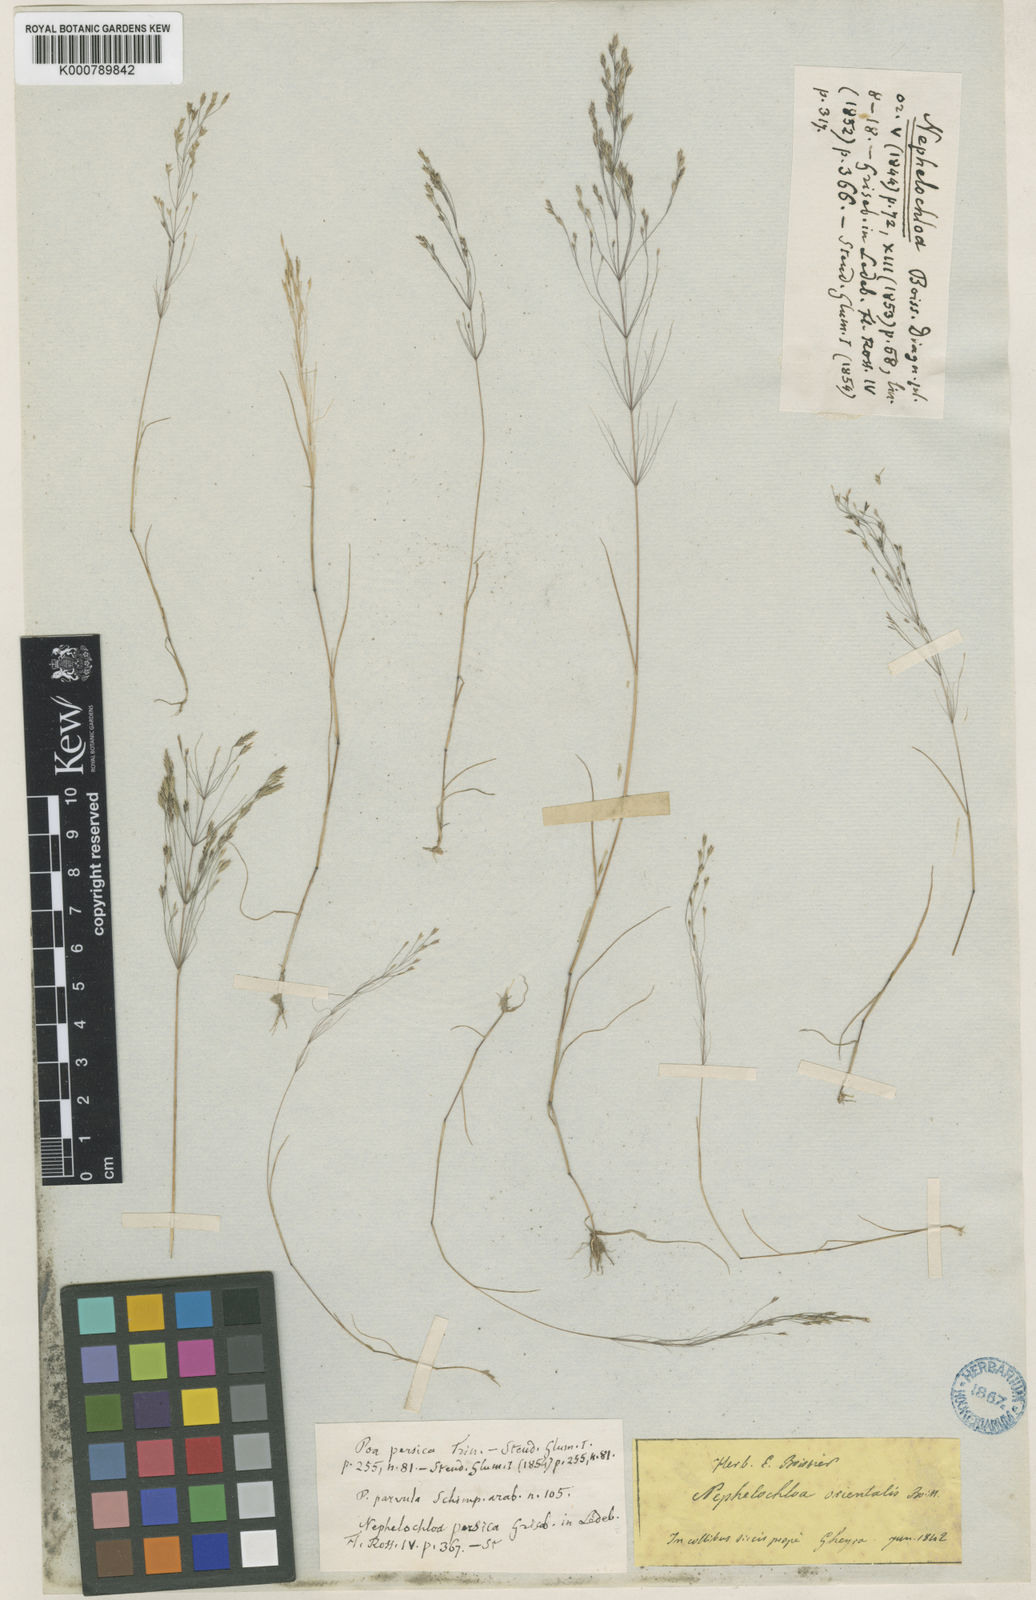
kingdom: Plantae
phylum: Tracheophyta
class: Liliopsida
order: Poales
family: Poaceae
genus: Nephelochloa
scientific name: Nephelochloa orientalis
